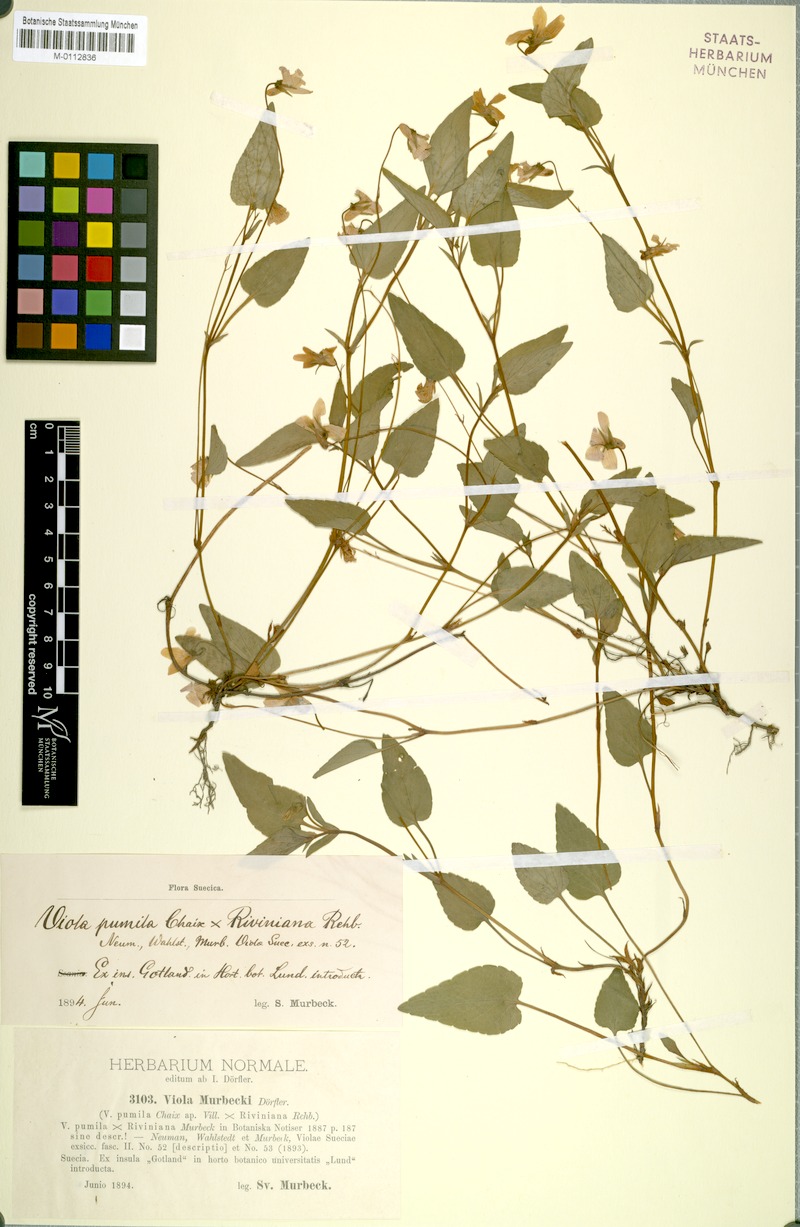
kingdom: Plantae
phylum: Tracheophyta
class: Magnoliopsida
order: Malpighiales
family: Violaceae
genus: Viola
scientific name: Viola murbeckii
